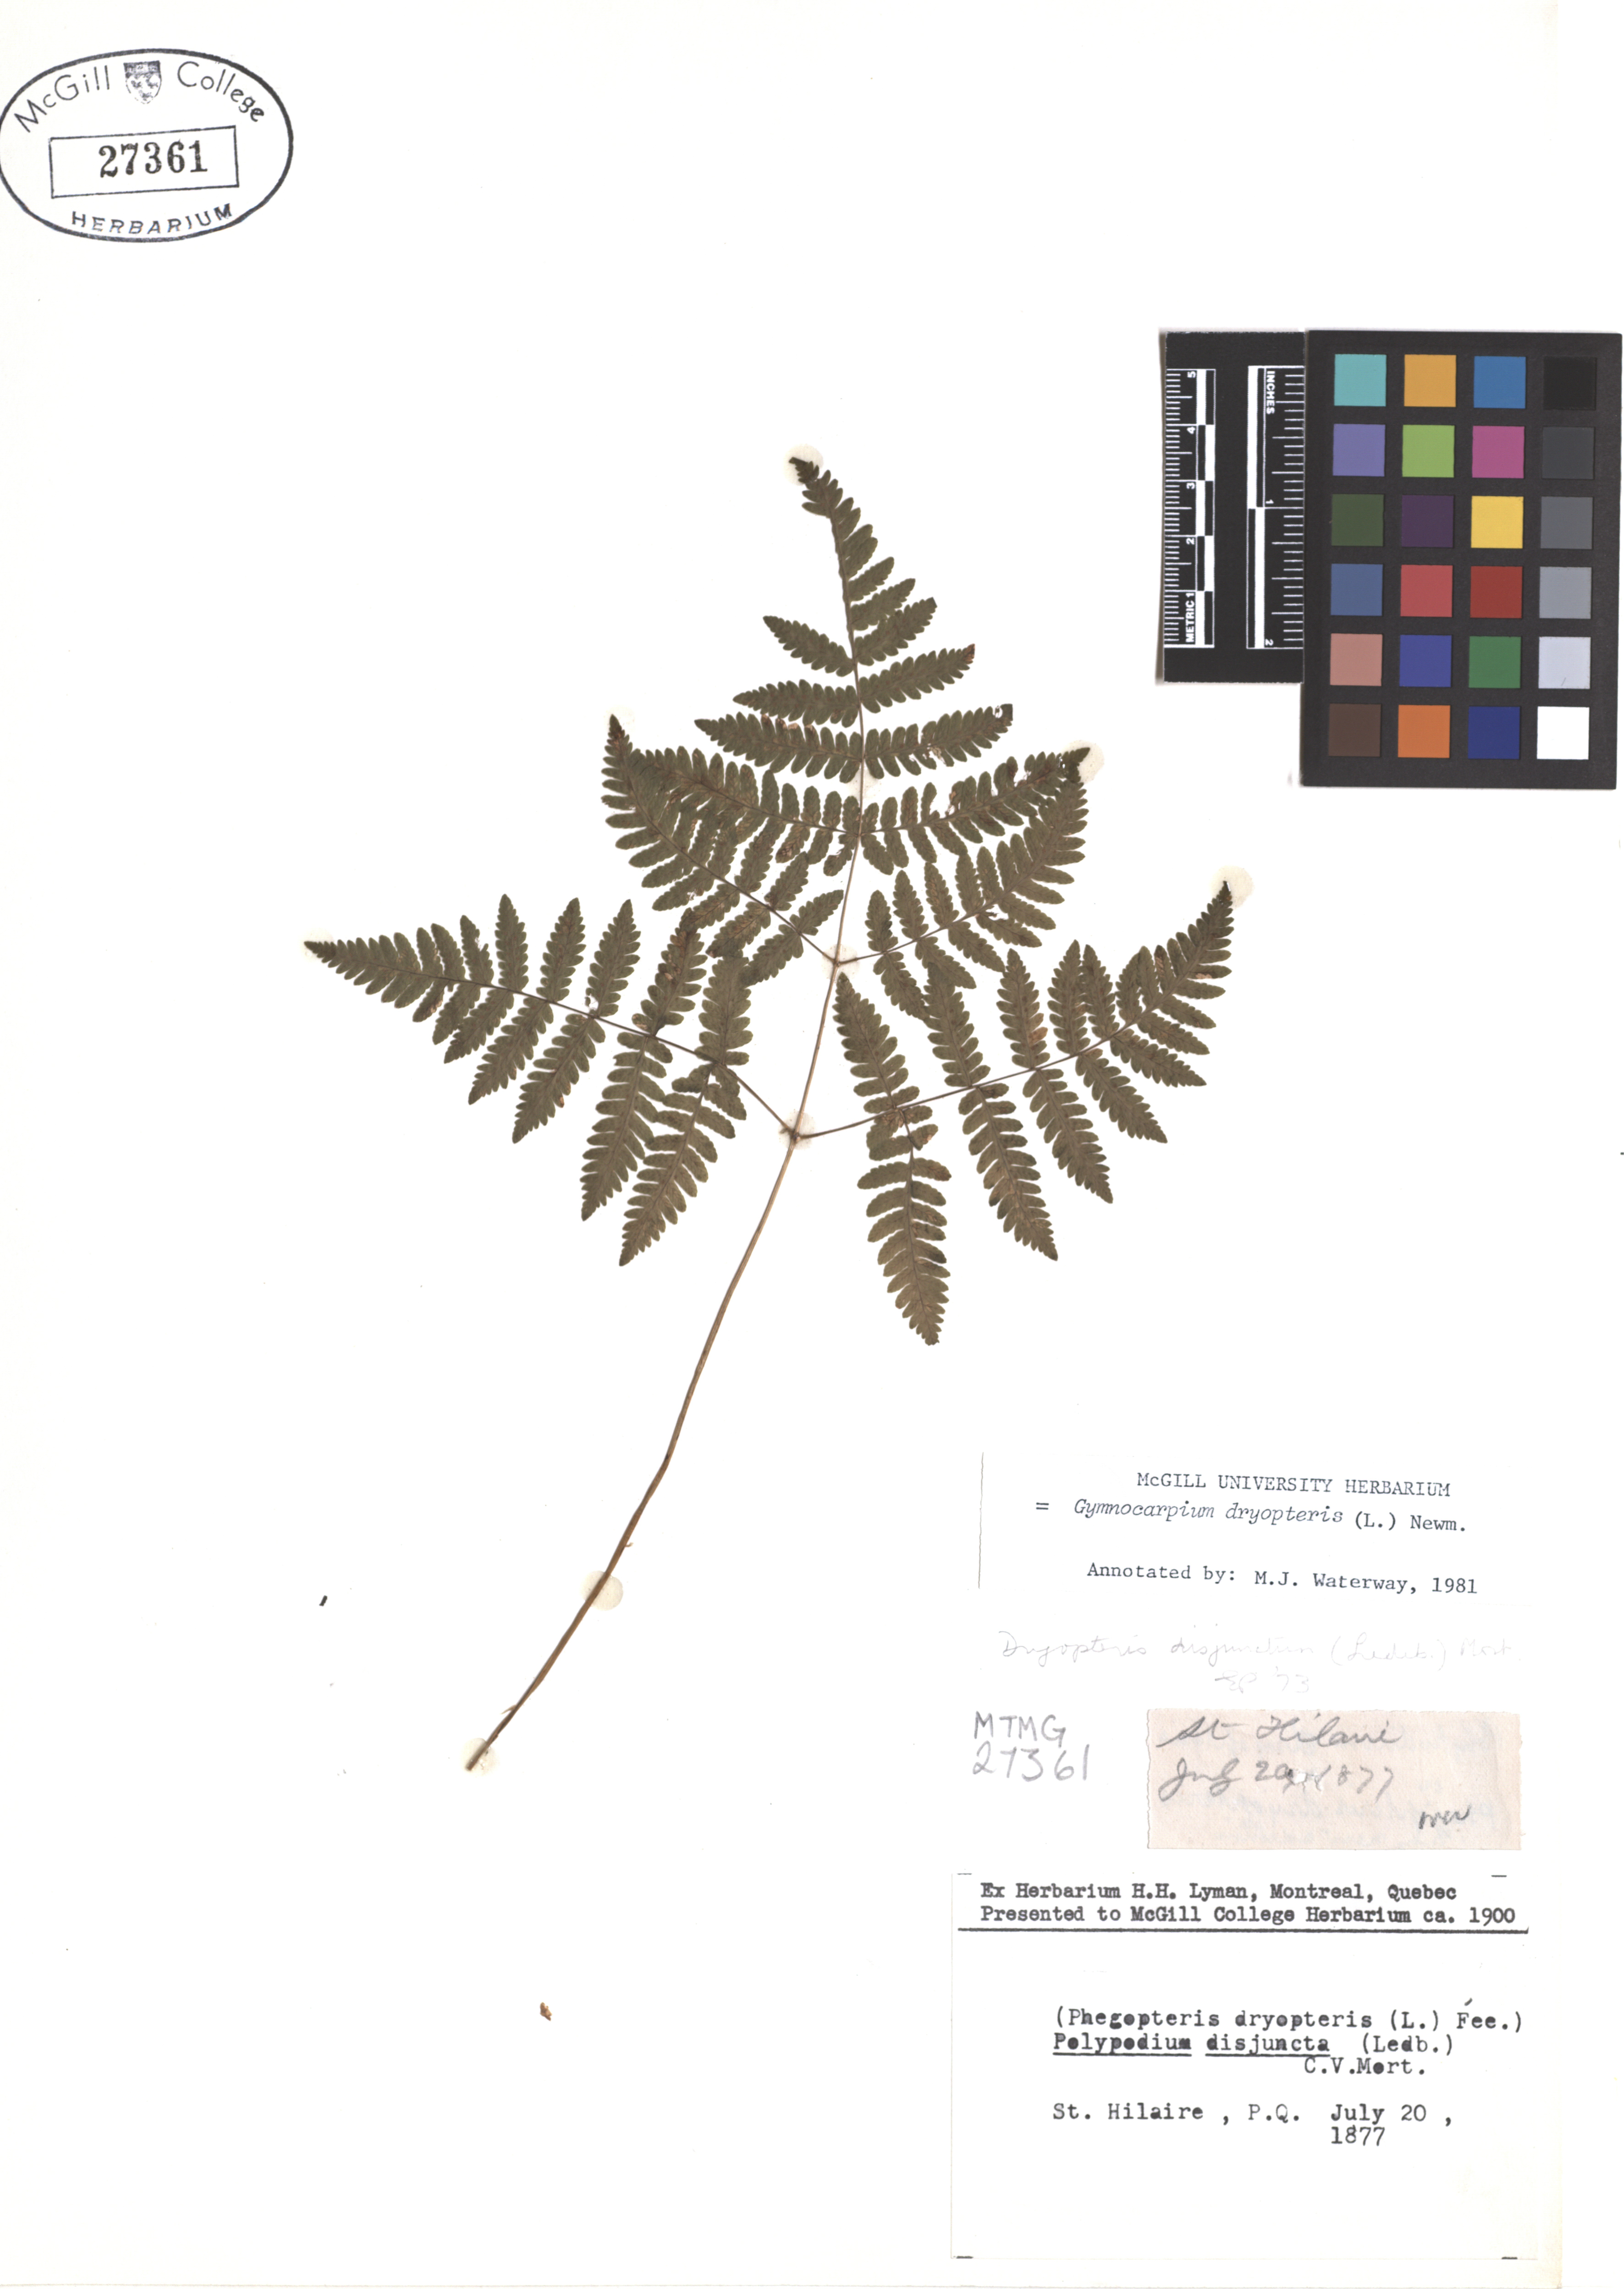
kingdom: Plantae
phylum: Tracheophyta
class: Polypodiopsida
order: Polypodiales
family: Cystopteridaceae
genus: Gymnocarpium
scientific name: Gymnocarpium dryopteris
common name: Oak fern
